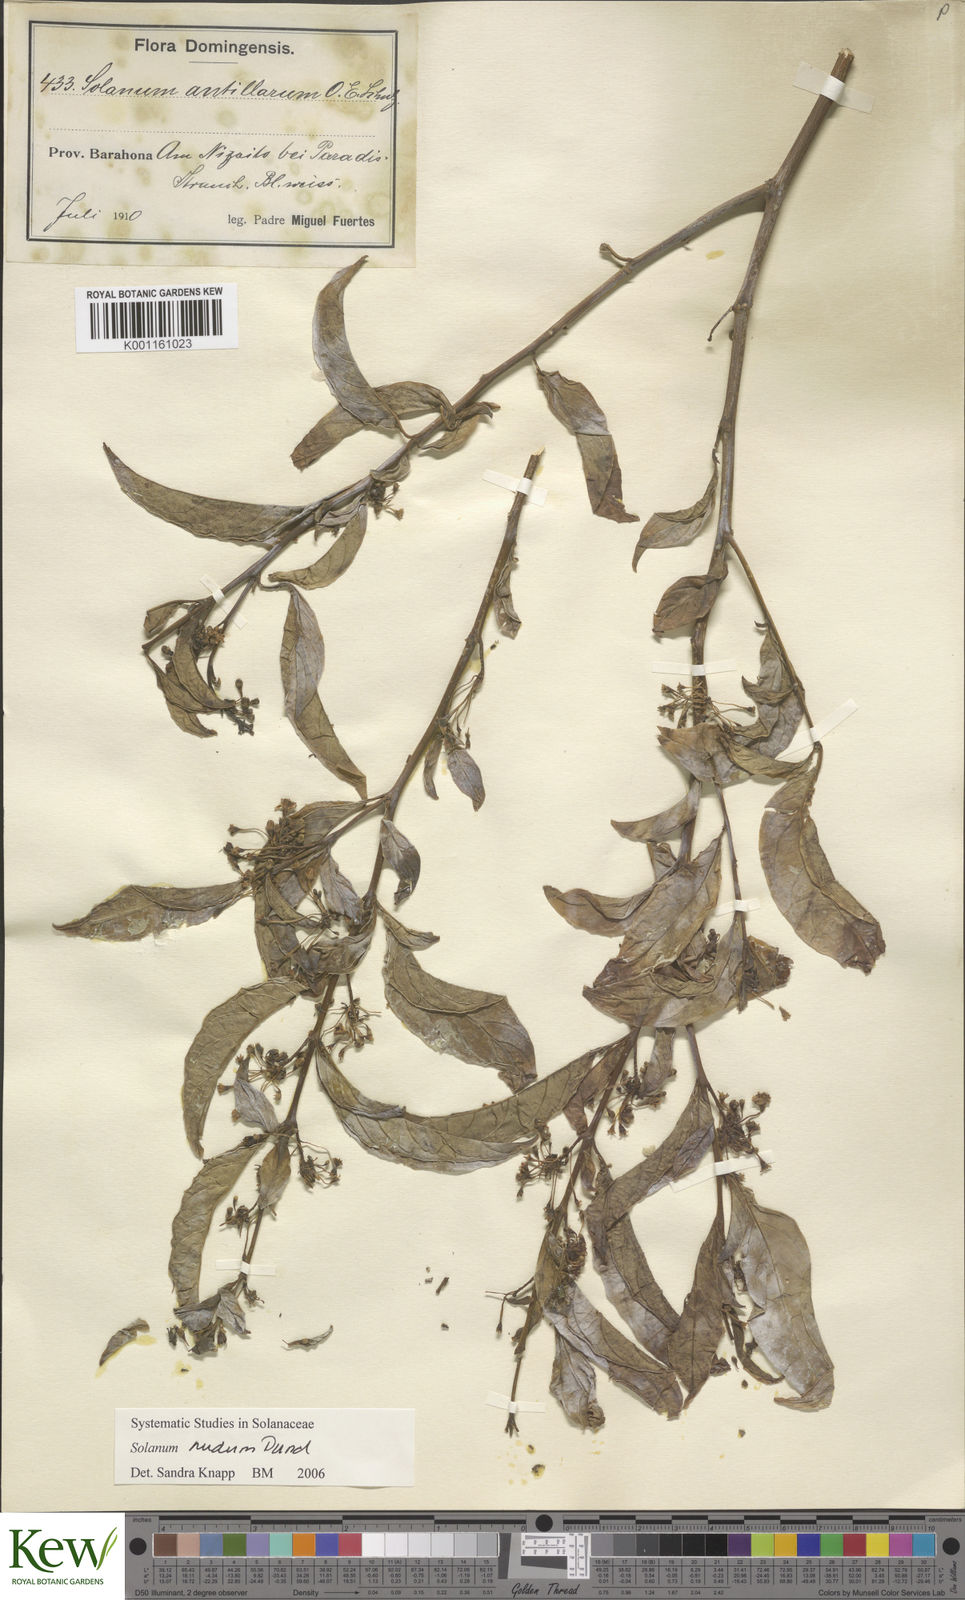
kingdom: Plantae
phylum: Tracheophyta
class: Magnoliopsida
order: Solanales
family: Solanaceae
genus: Solanum
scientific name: Solanum nudum
